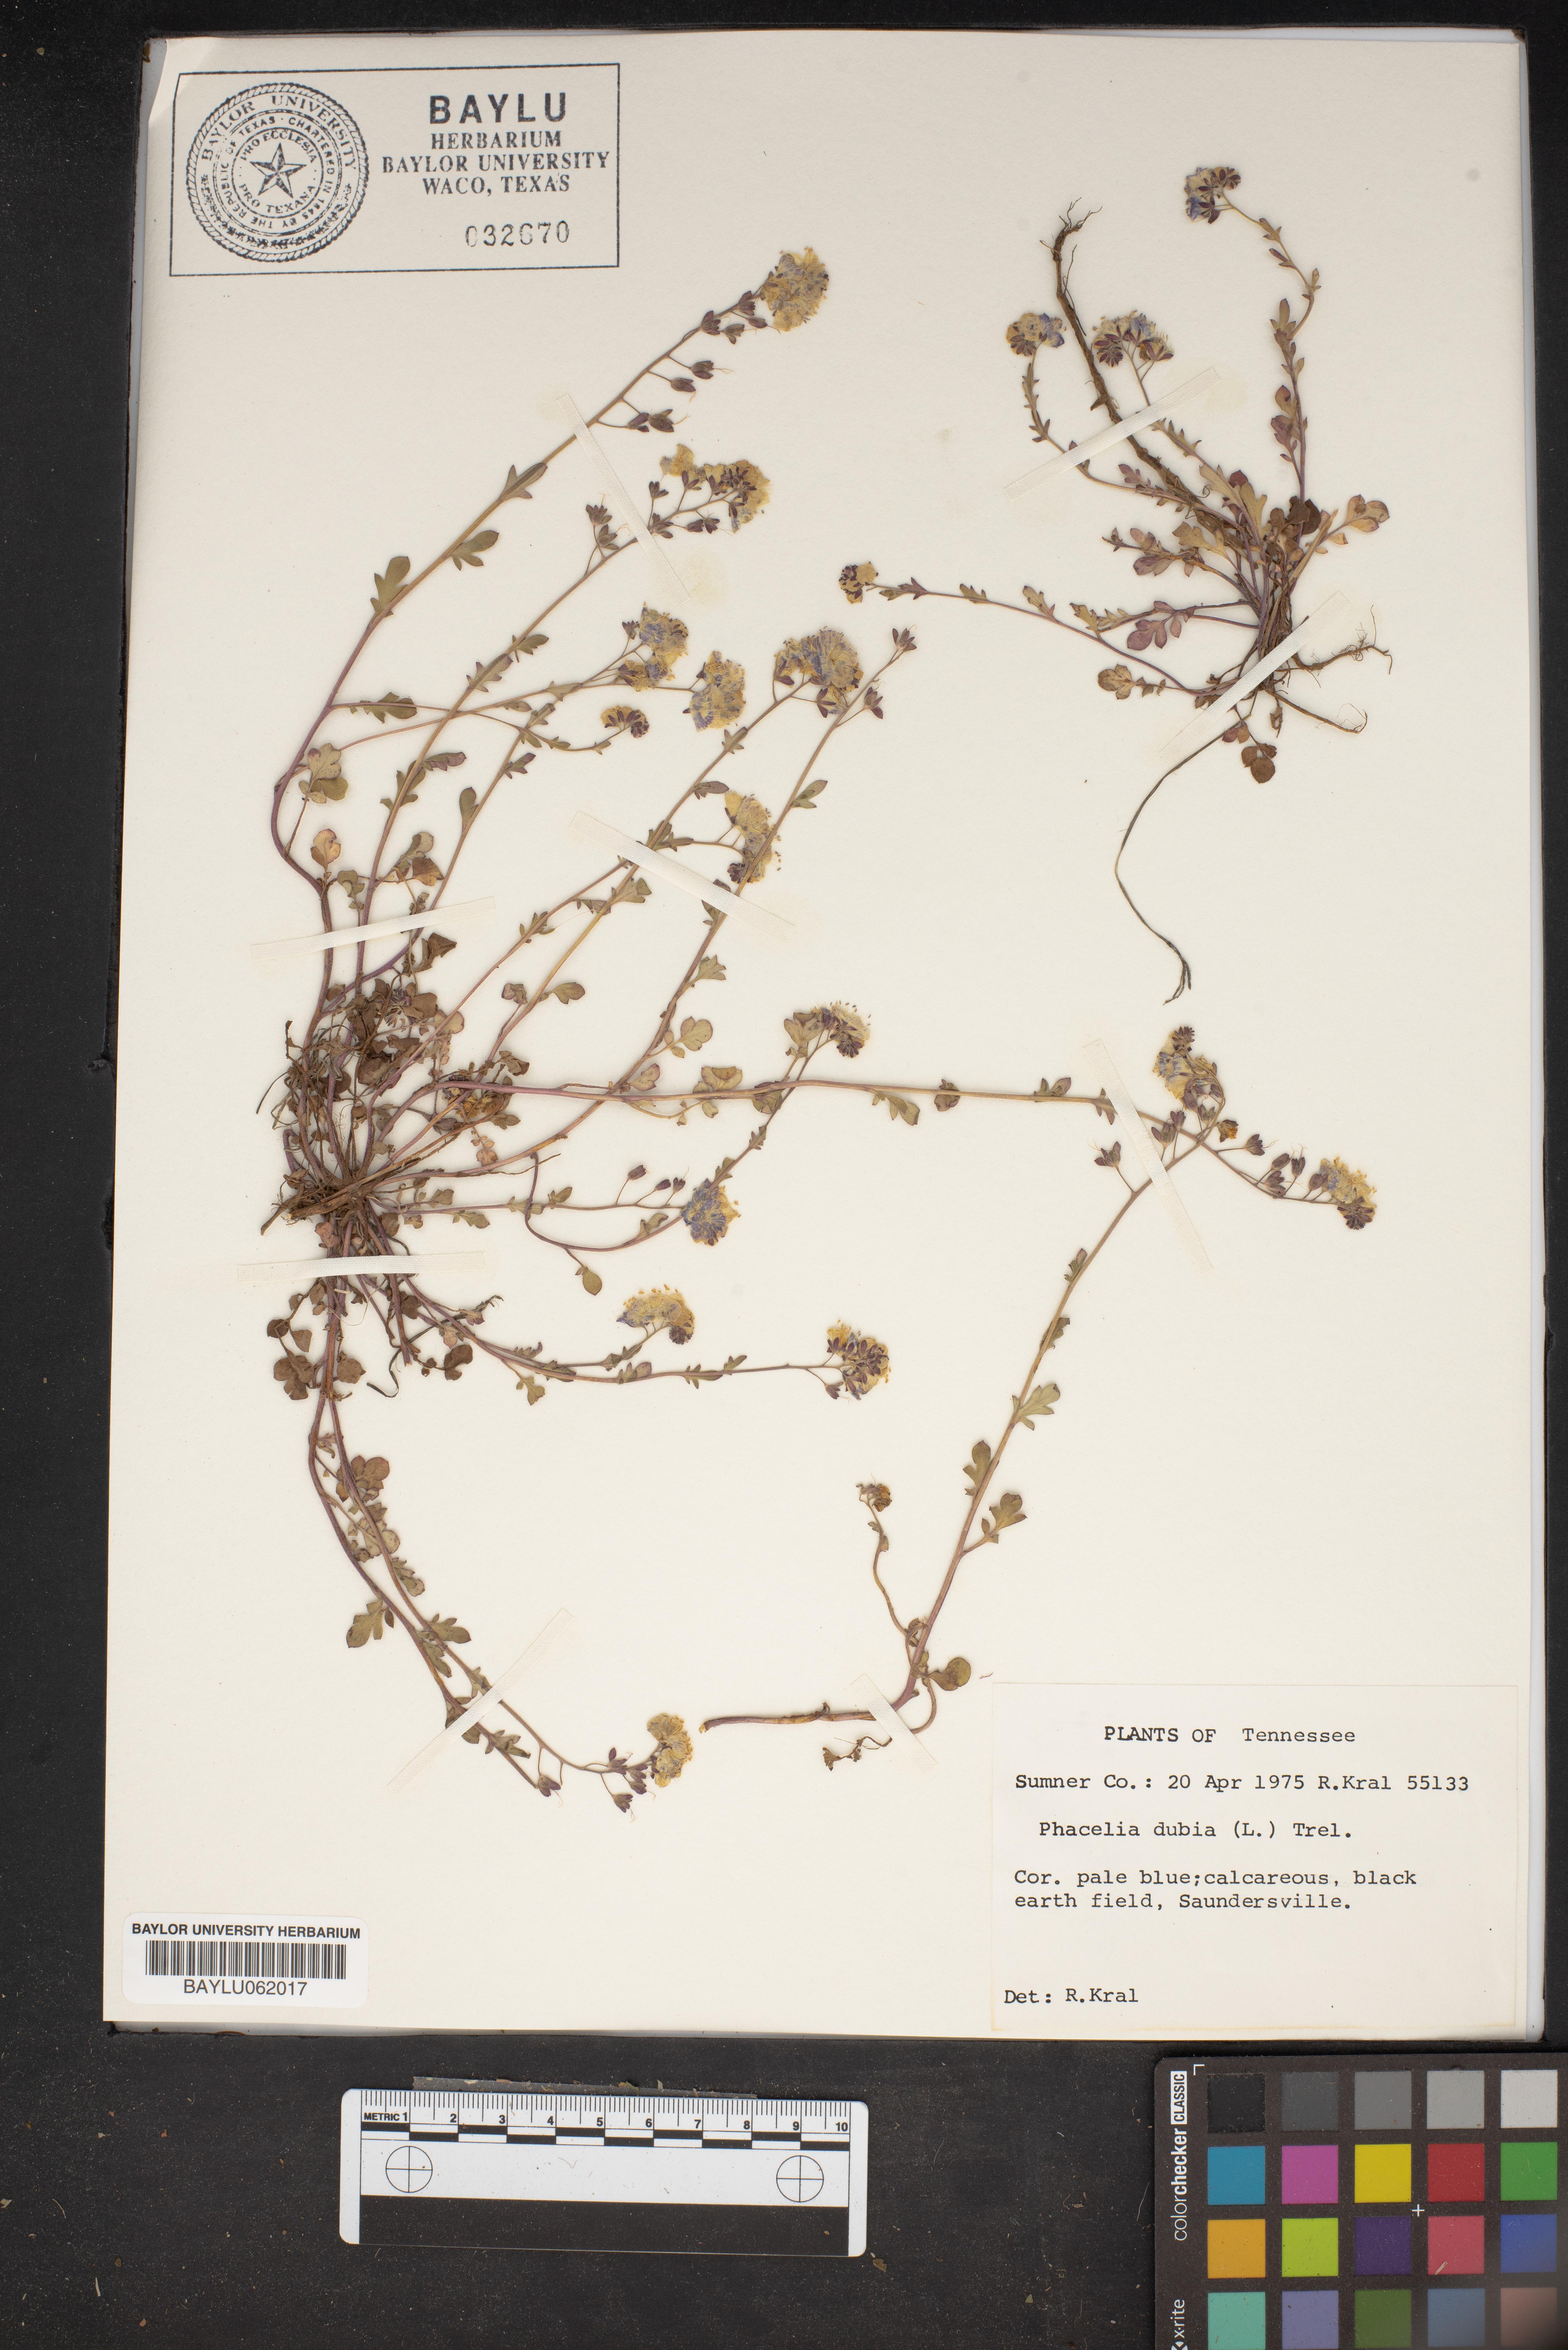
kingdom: Plantae
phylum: Tracheophyta
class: Magnoliopsida
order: Boraginales
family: Hydrophyllaceae
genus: Phacelia
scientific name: Phacelia dubia
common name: Appalachian phacelia
